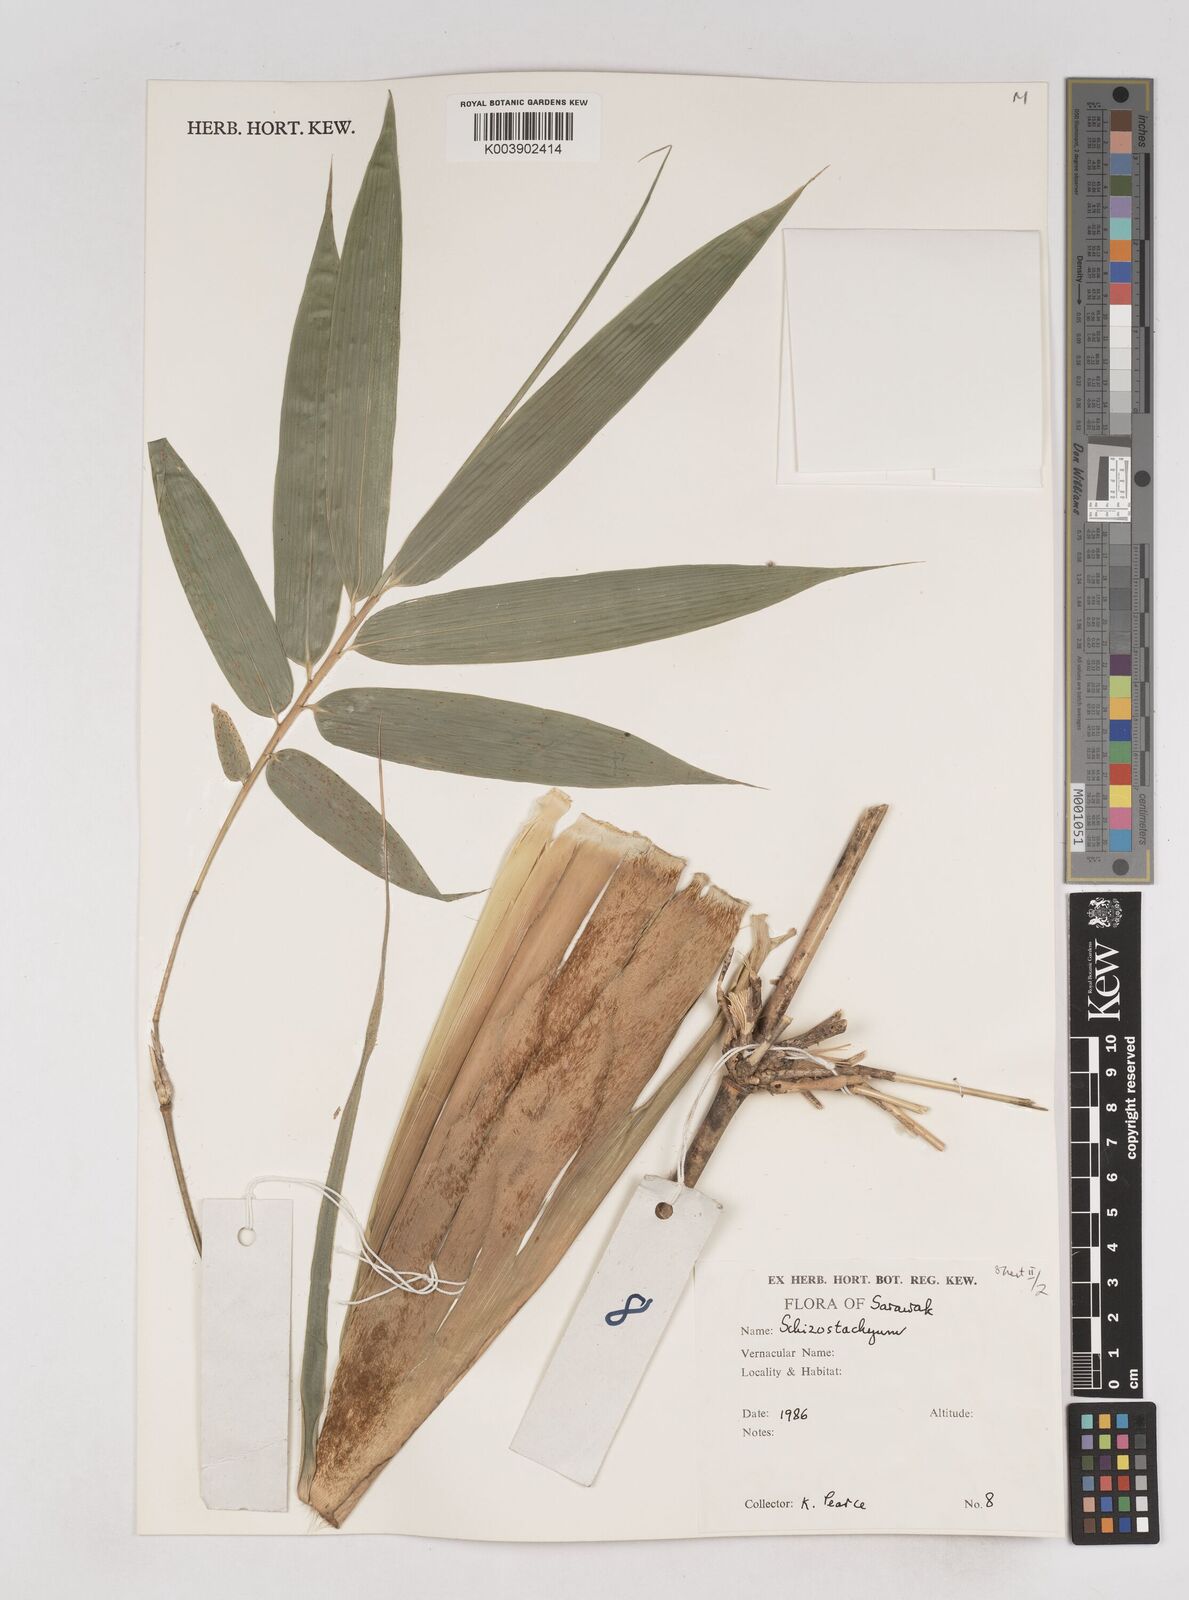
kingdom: Plantae
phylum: Tracheophyta
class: Liliopsida
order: Poales
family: Poaceae
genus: Schizostachyum
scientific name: Schizostachyum
